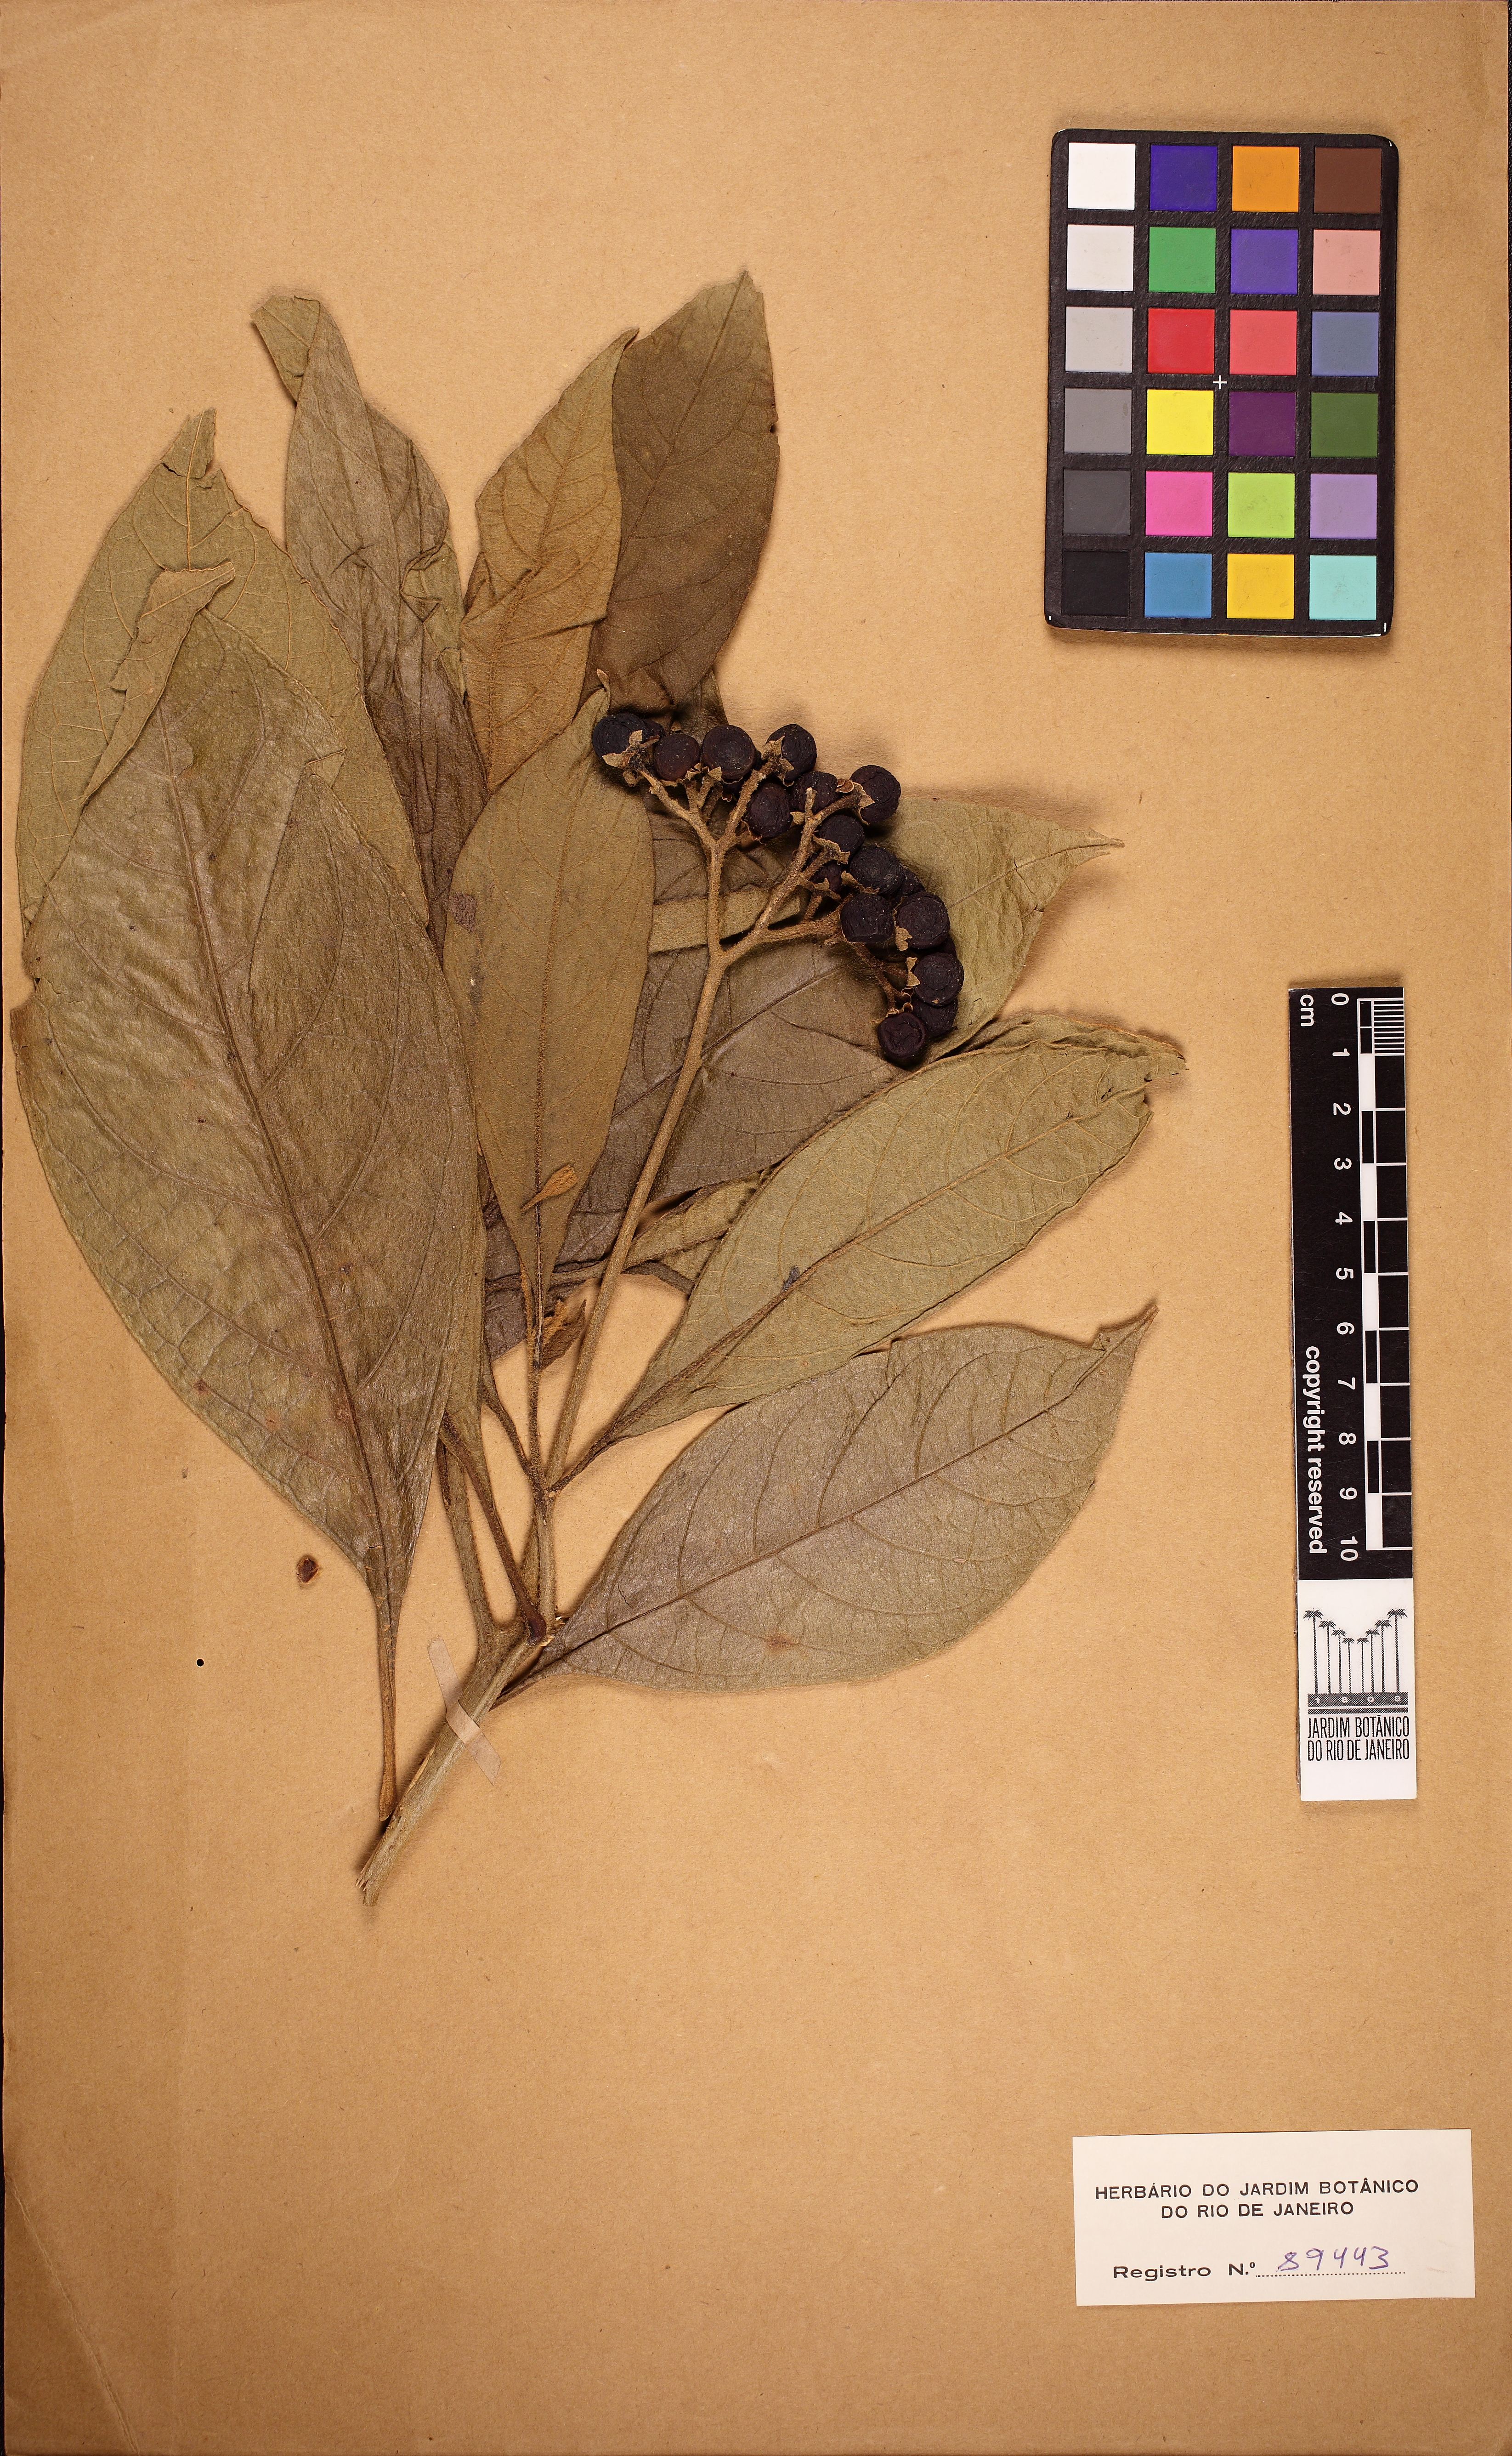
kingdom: Plantae
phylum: Tracheophyta
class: Magnoliopsida
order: Solanales
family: Solanaceae
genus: Solanum
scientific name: Solanum rugosum
